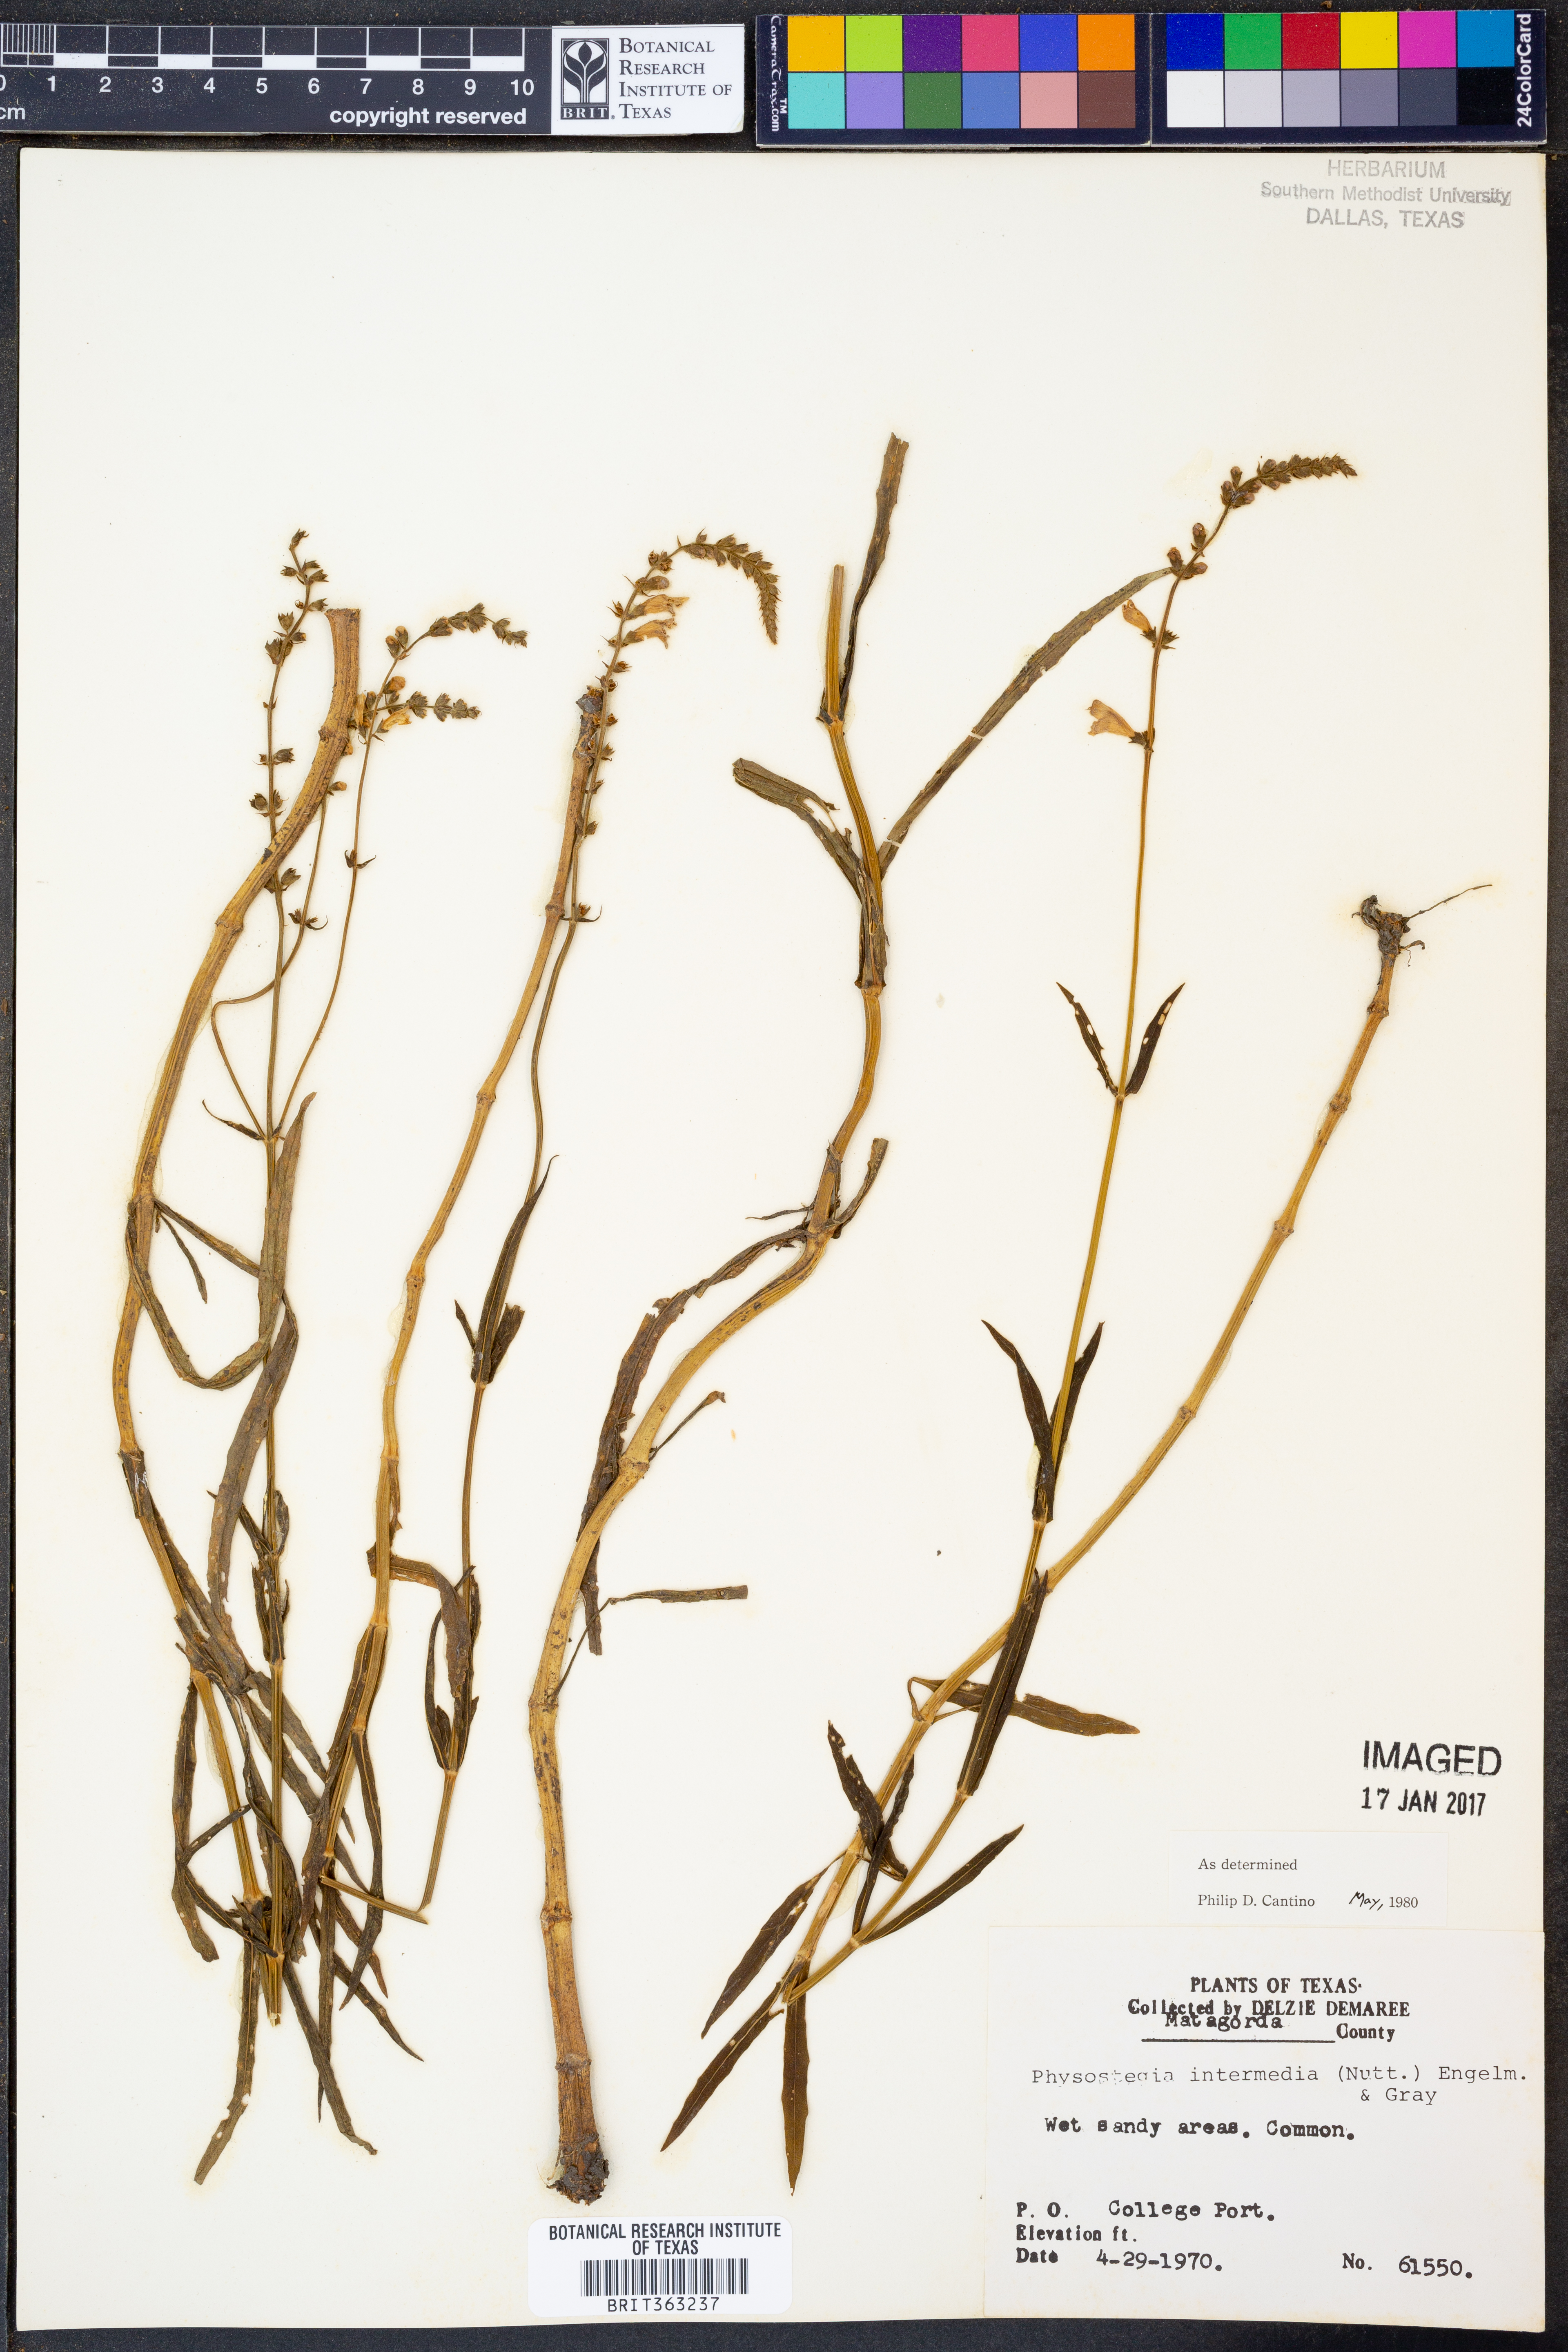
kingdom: Plantae
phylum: Tracheophyta
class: Magnoliopsida
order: Lamiales
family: Lamiaceae
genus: Physostegia
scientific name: Physostegia intermedia
